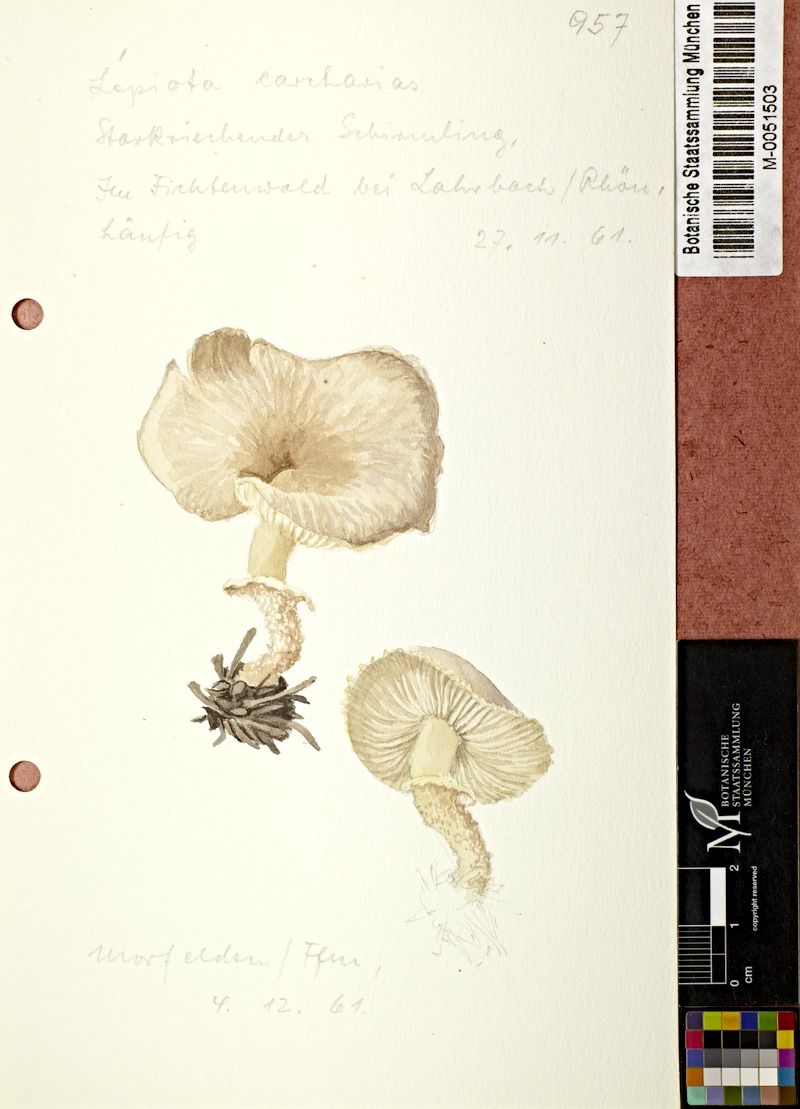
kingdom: Fungi
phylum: Basidiomycota
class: Agaricomycetes
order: Agaricales
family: Tricholomataceae
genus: Cystoderma
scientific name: Cystoderma carcharias
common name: Pearly powdercap
